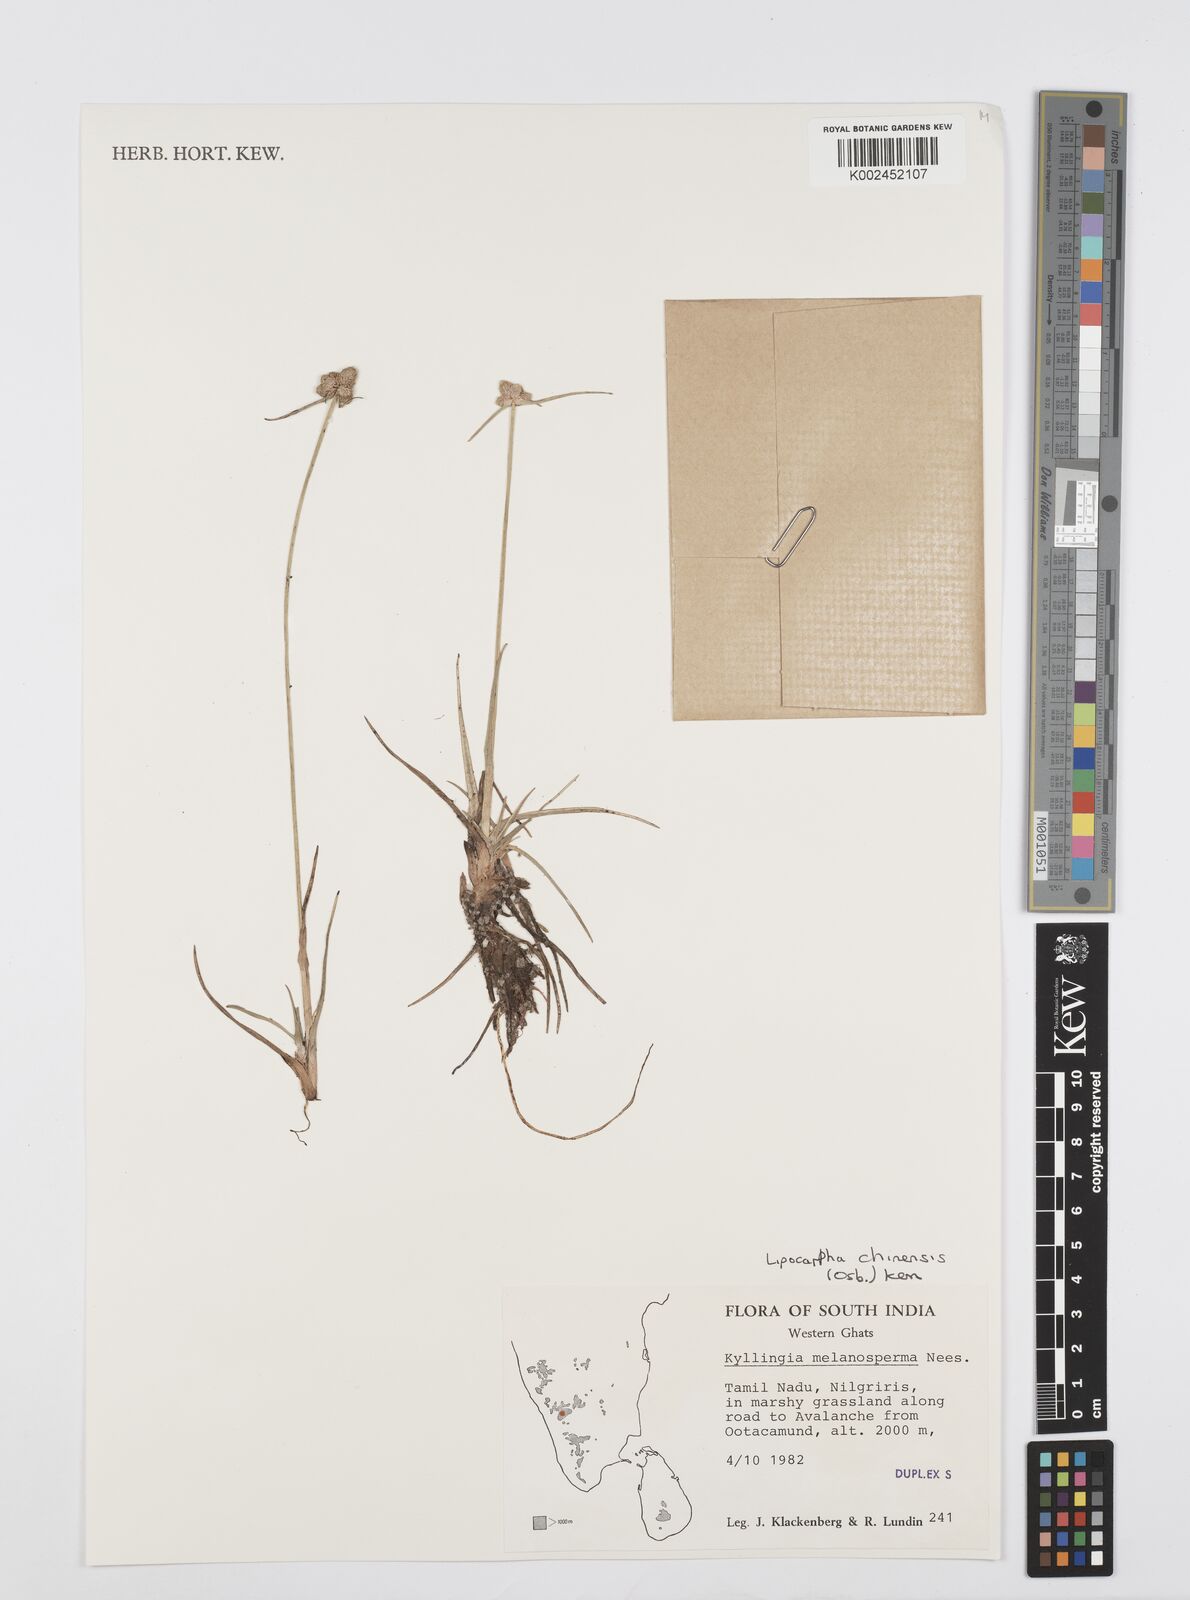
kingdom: Plantae
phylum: Tracheophyta
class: Liliopsida
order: Poales
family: Cyperaceae
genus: Cyperus
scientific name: Cyperus
